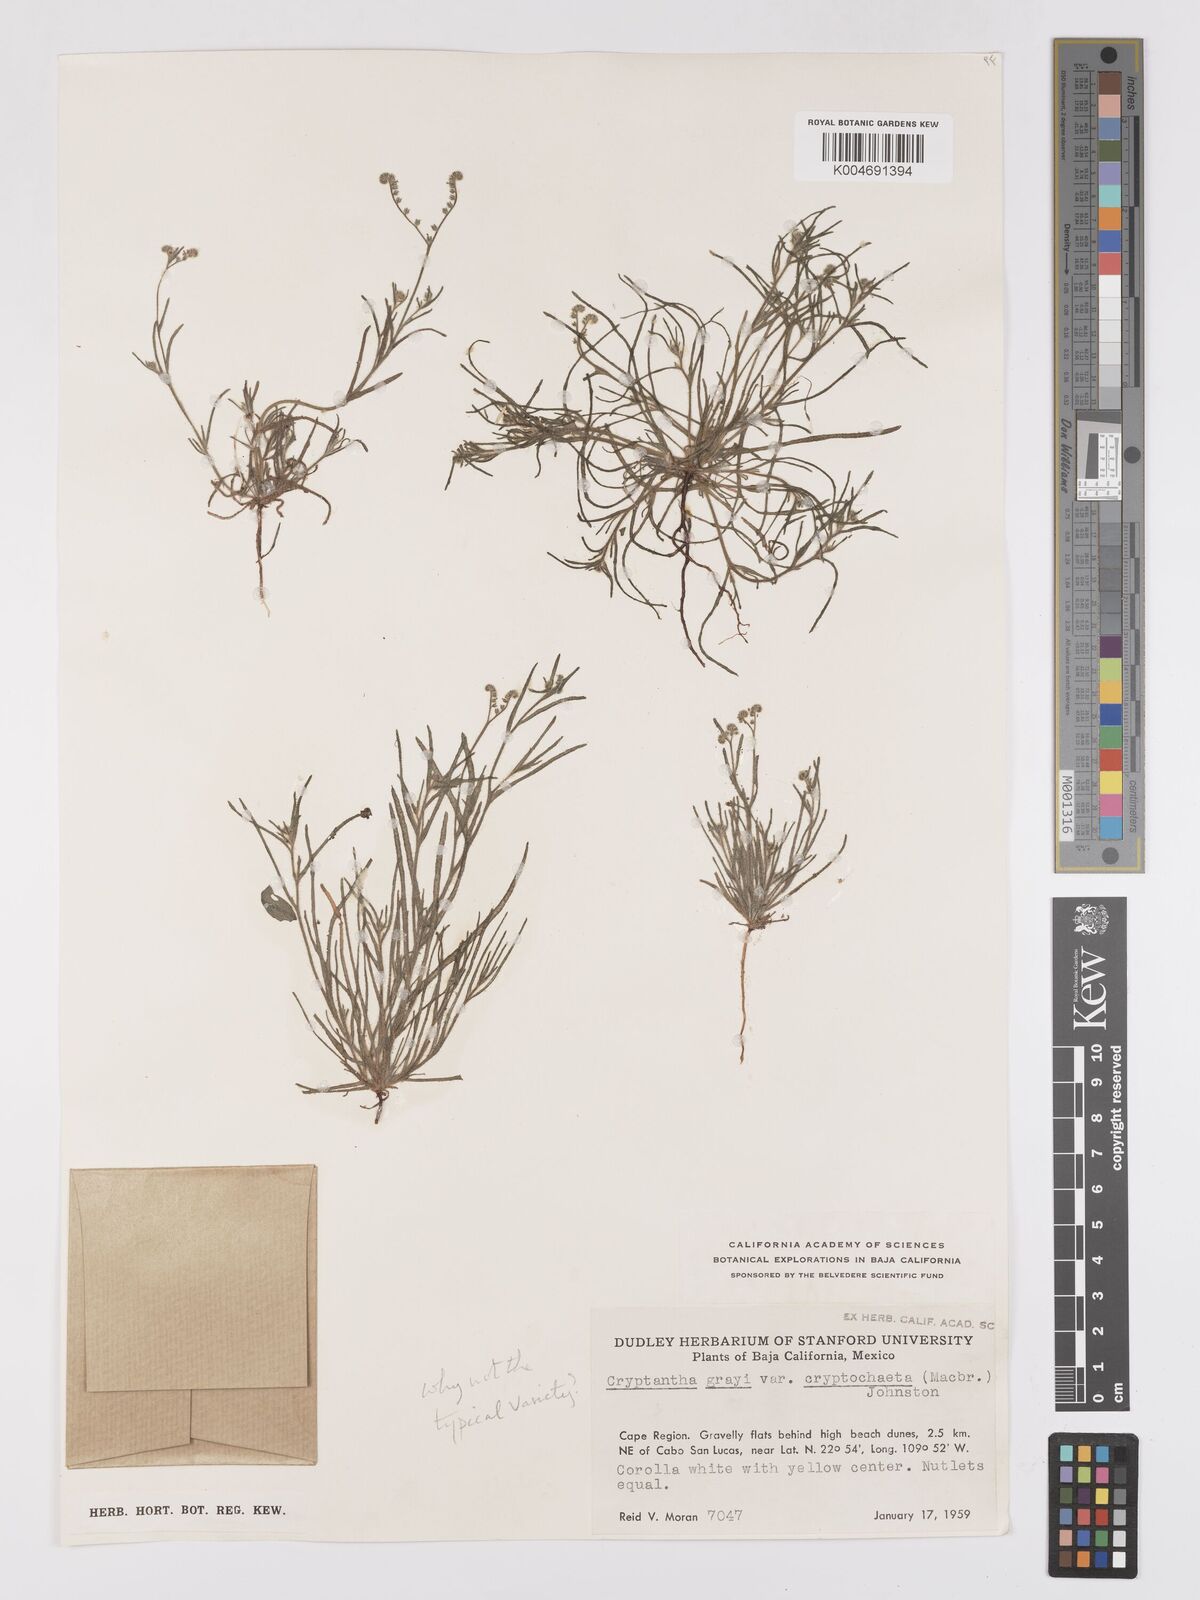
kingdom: Plantae
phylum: Tracheophyta
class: Magnoliopsida
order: Boraginales
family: Boraginaceae
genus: Johnstonella
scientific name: Johnstonella grayi
